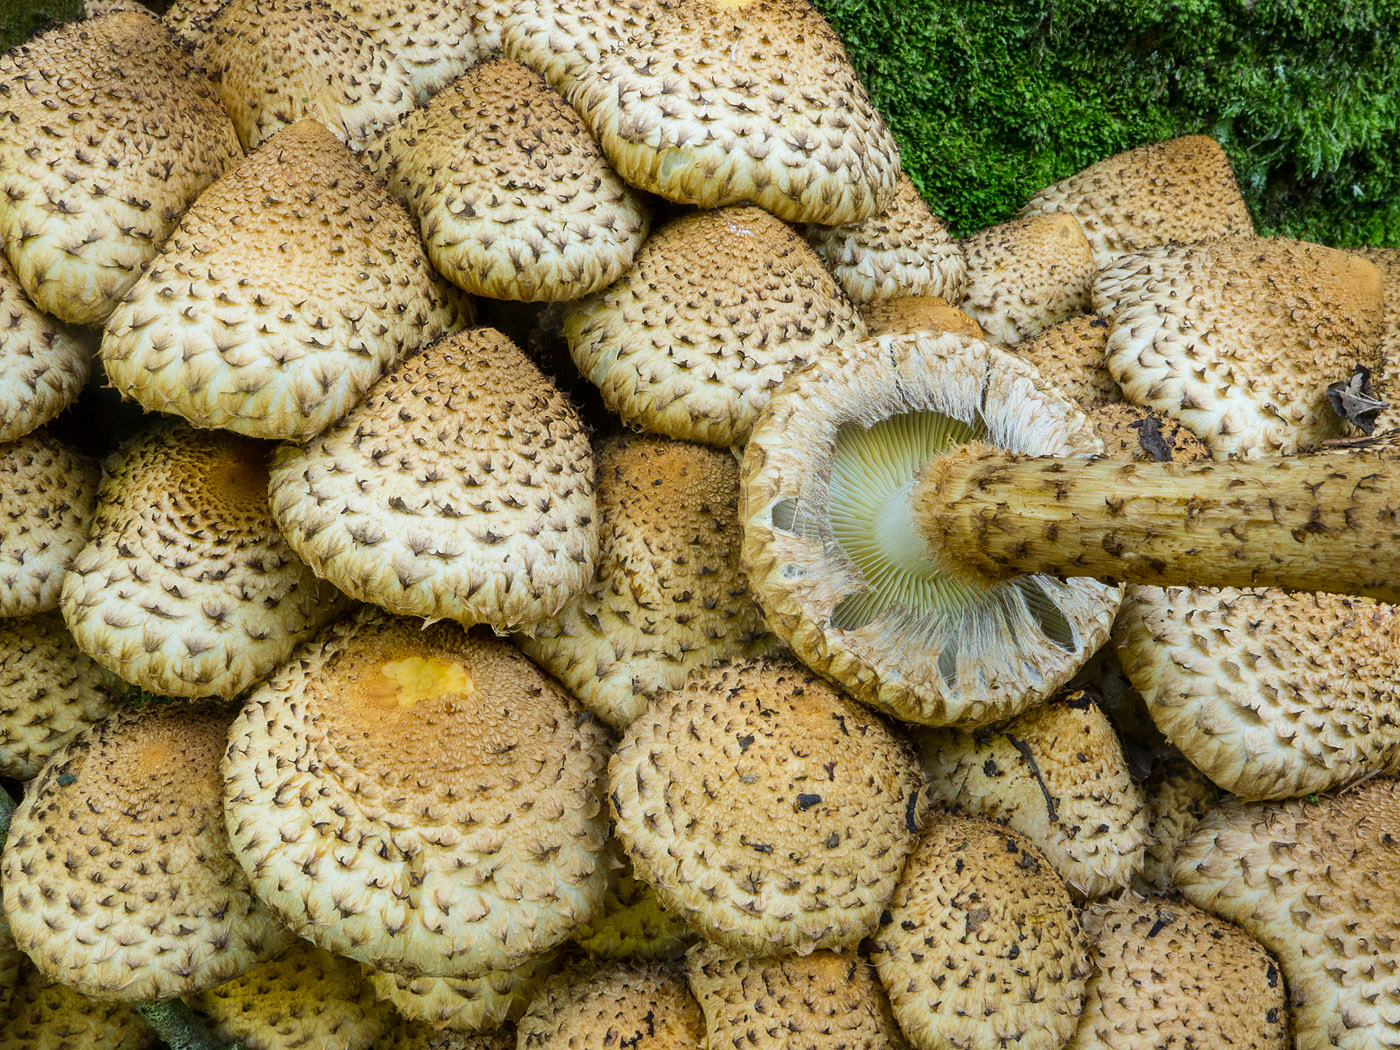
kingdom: Fungi
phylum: Basidiomycota
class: Agaricomycetes
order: Agaricales
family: Strophariaceae
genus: Pholiota
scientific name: Pholiota squarrosa
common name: krumskællet skælhat
